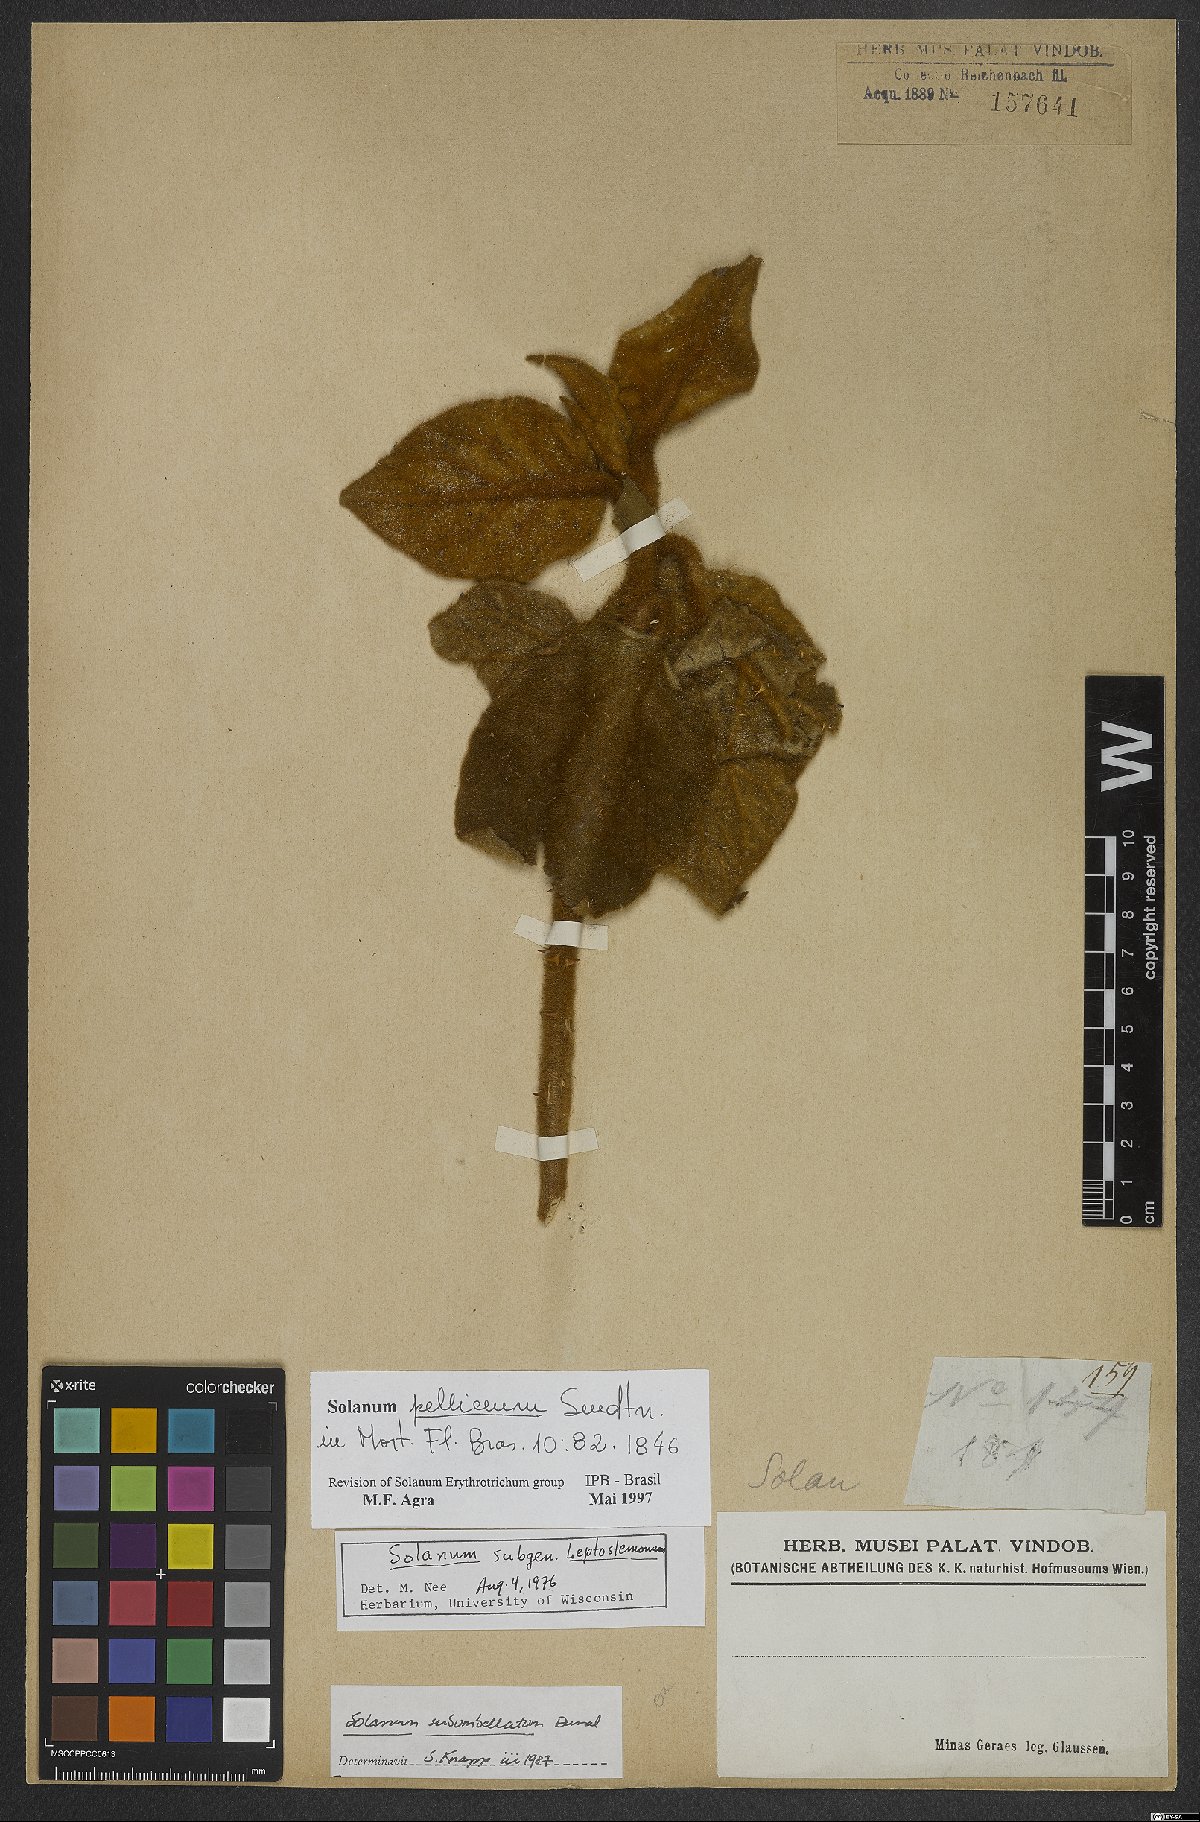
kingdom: Plantae
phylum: Tracheophyta
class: Magnoliopsida
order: Solanales
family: Solanaceae
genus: Solanum
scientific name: Solanum velleum
